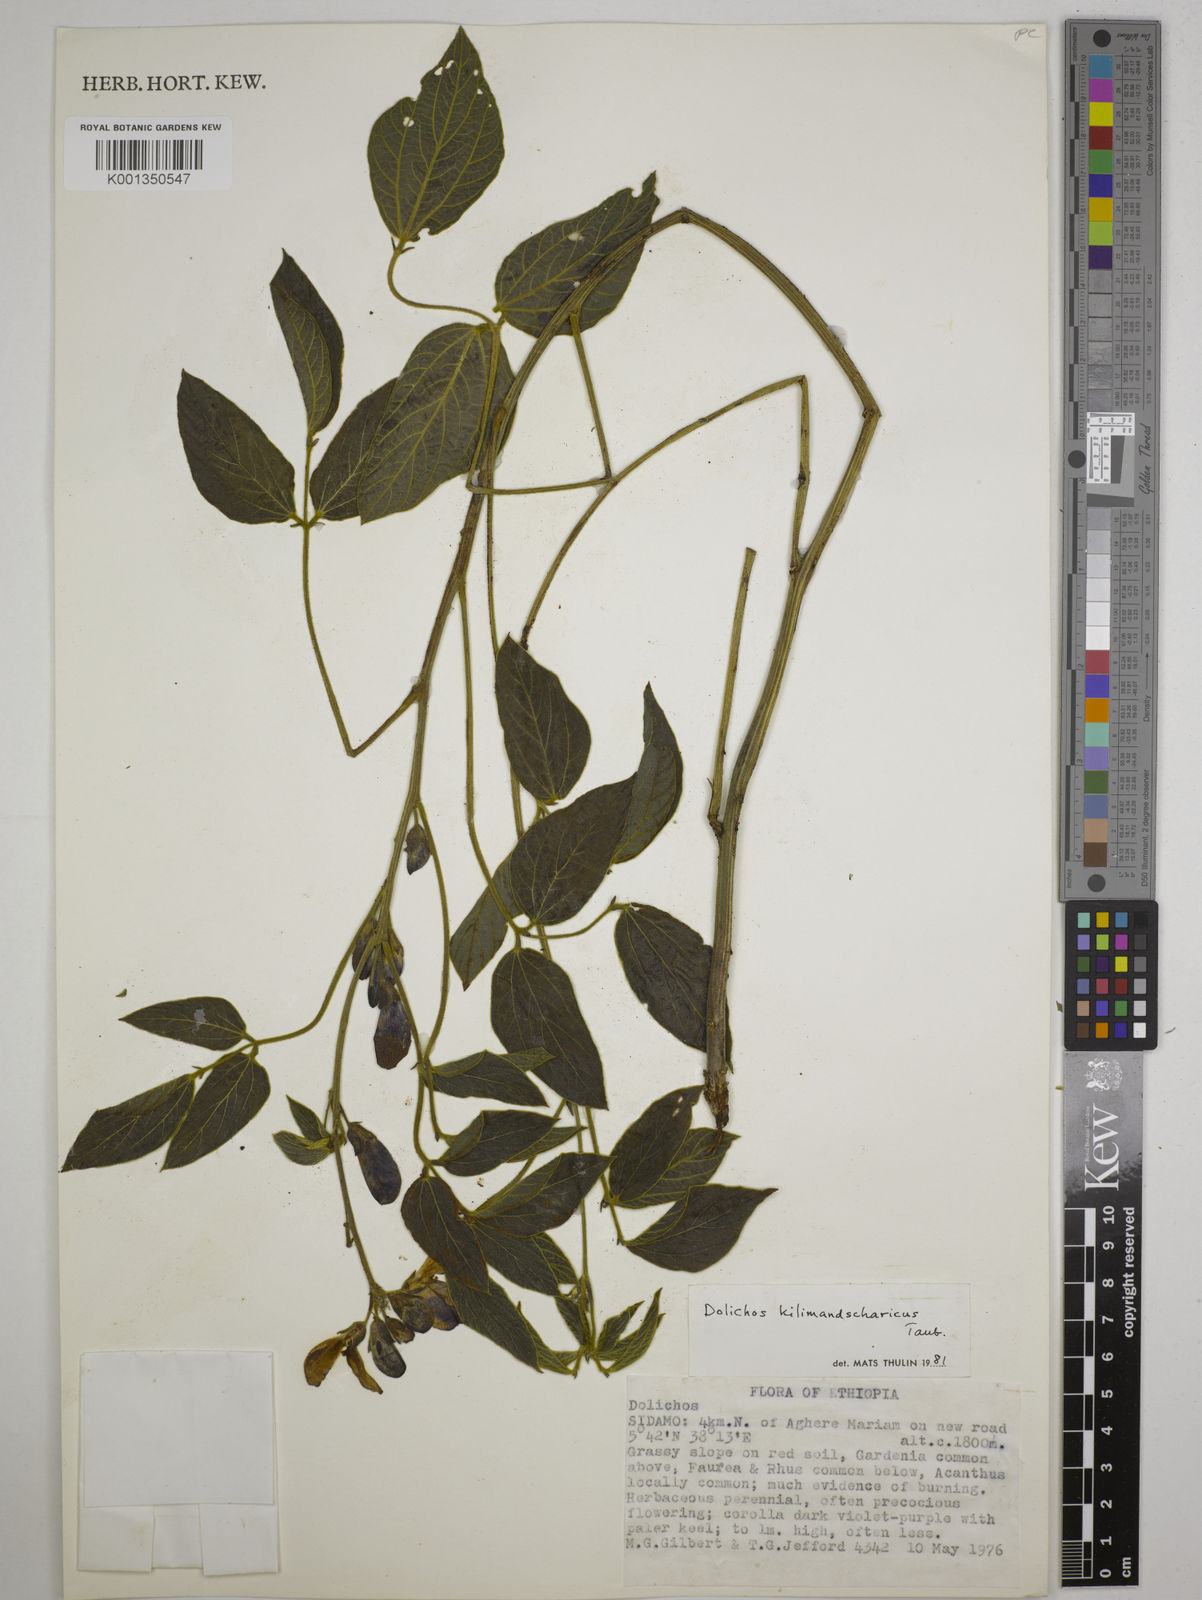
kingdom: Plantae
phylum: Tracheophyta
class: Magnoliopsida
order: Fabales
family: Fabaceae
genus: Dolichos
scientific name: Dolichos kilimandscharicus
